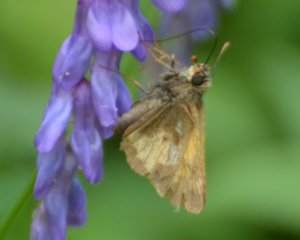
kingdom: Animalia
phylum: Arthropoda
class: Insecta
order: Lepidoptera
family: Hesperiidae
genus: Lon
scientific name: Lon hobomok
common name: Hobomok Skipper
